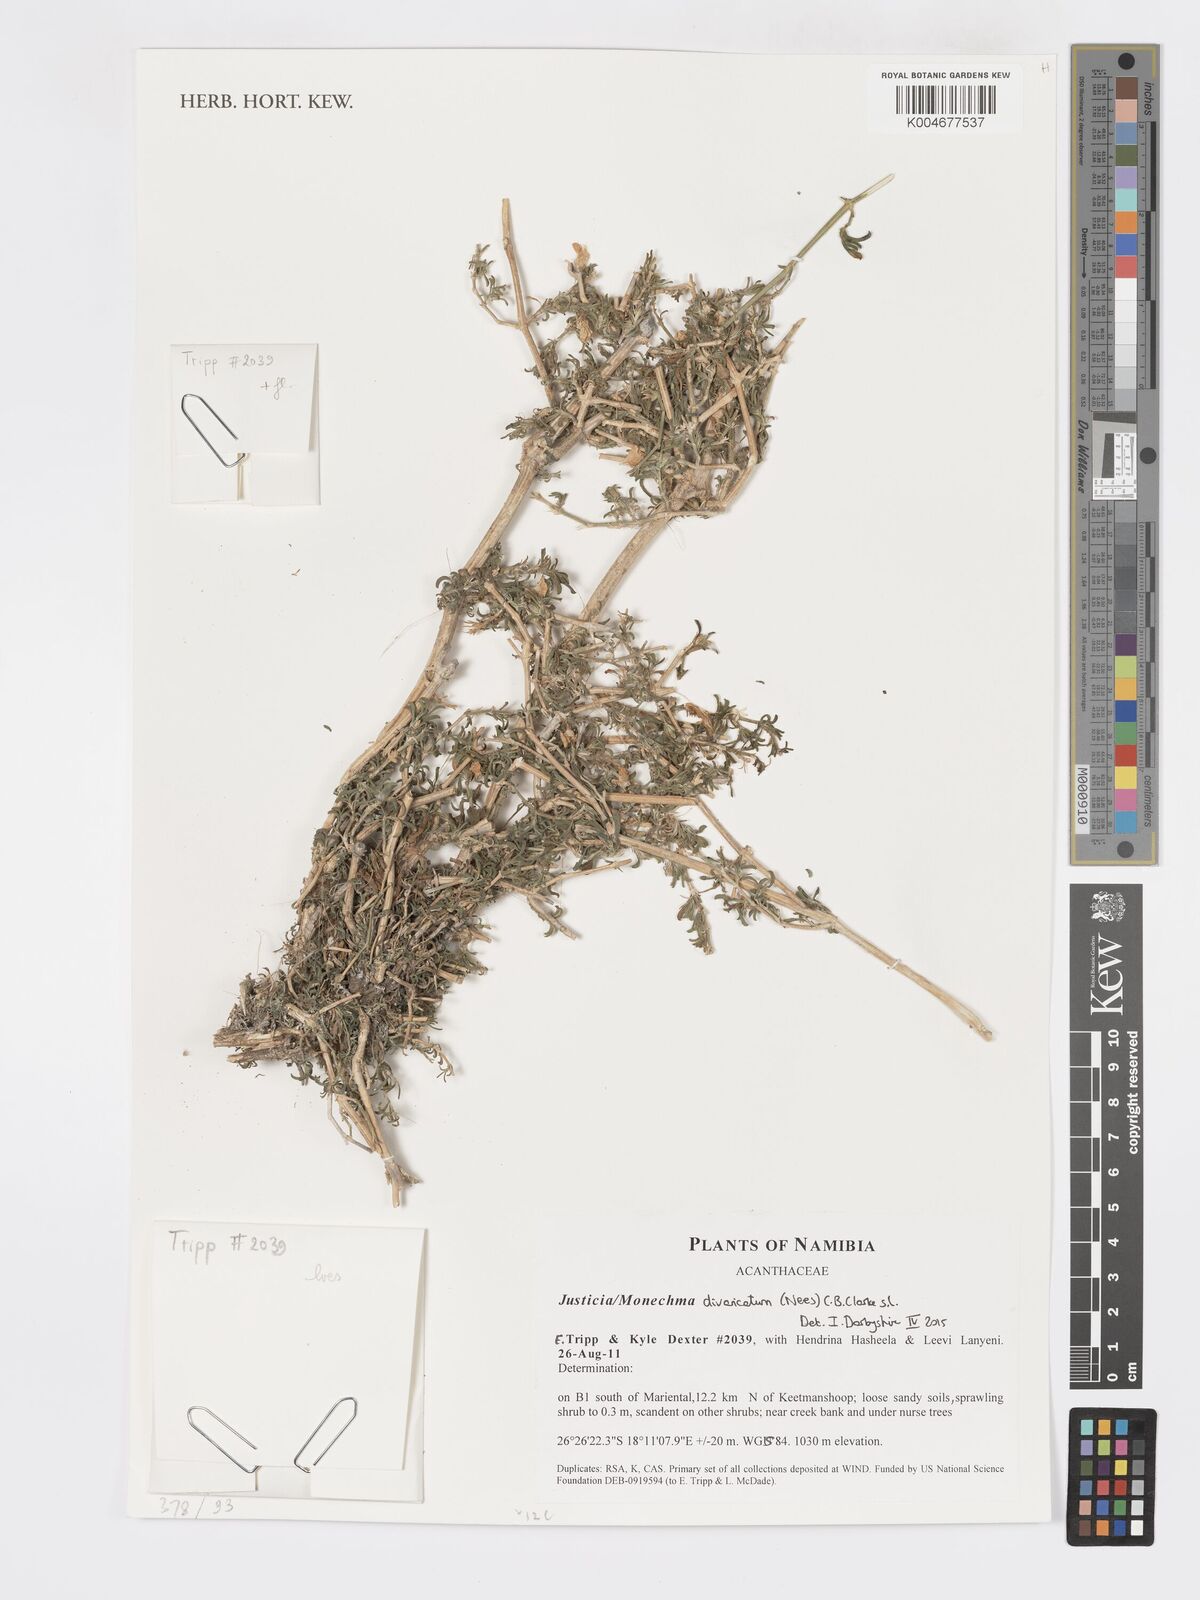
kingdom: Plantae
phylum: Tracheophyta
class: Magnoliopsida
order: Lamiales
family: Acanthaceae
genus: Pogonospermum
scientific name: Pogonospermum
